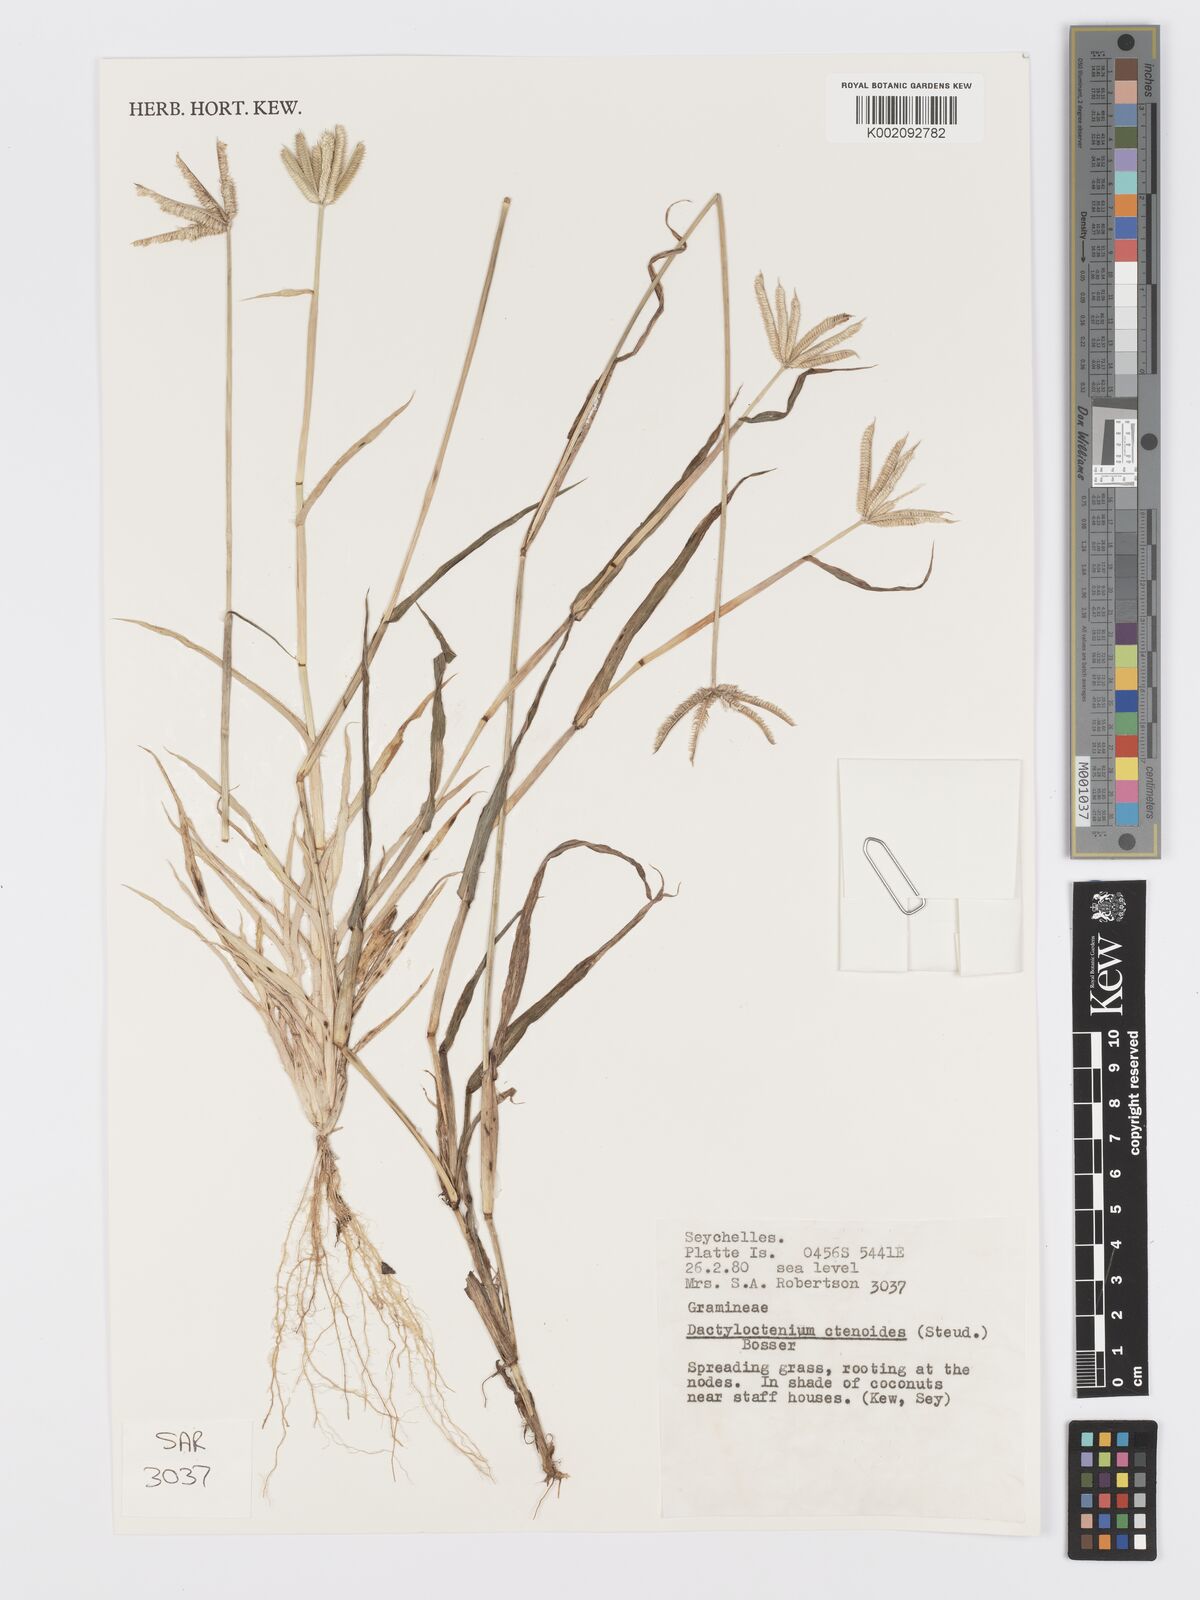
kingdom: Plantae
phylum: Tracheophyta
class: Liliopsida
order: Poales
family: Poaceae
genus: Dactyloctenium
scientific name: Dactyloctenium ctenoides
